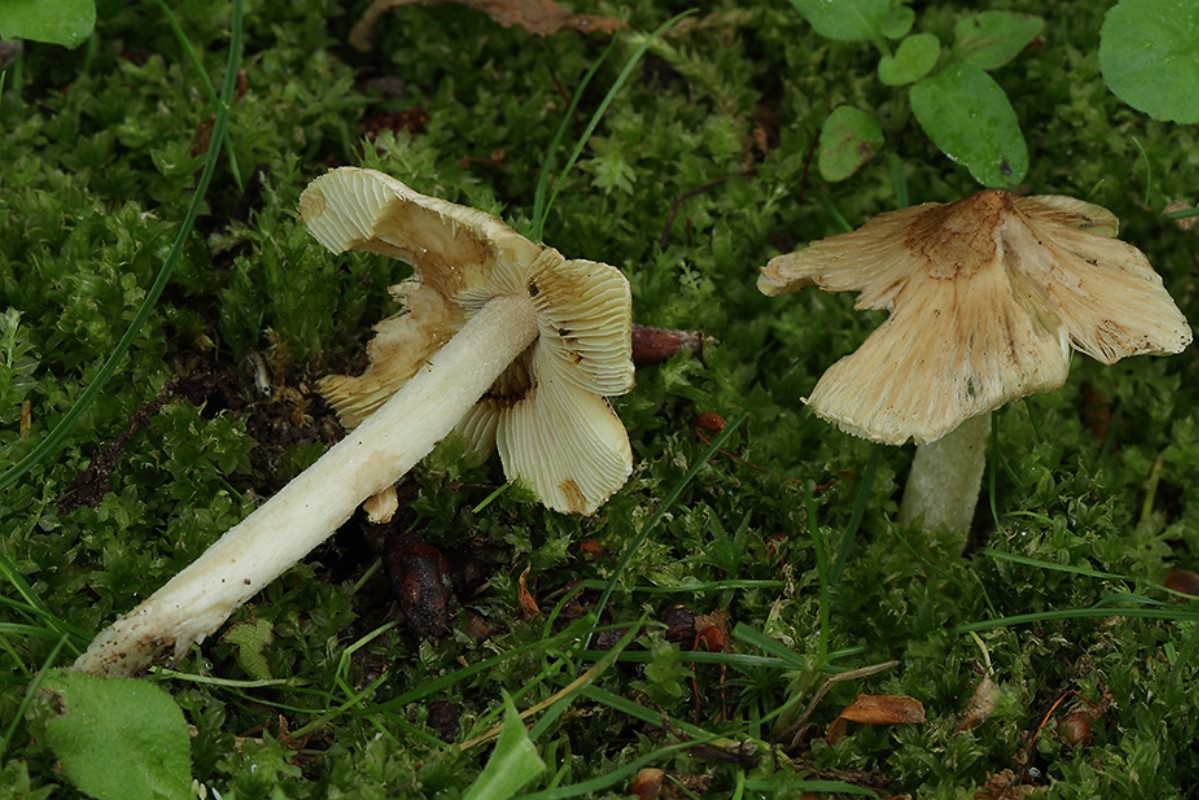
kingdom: Fungi
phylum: Basidiomycota
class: Agaricomycetes
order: Agaricales
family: Inocybaceae
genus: Pseudosperma
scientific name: Pseudosperma
